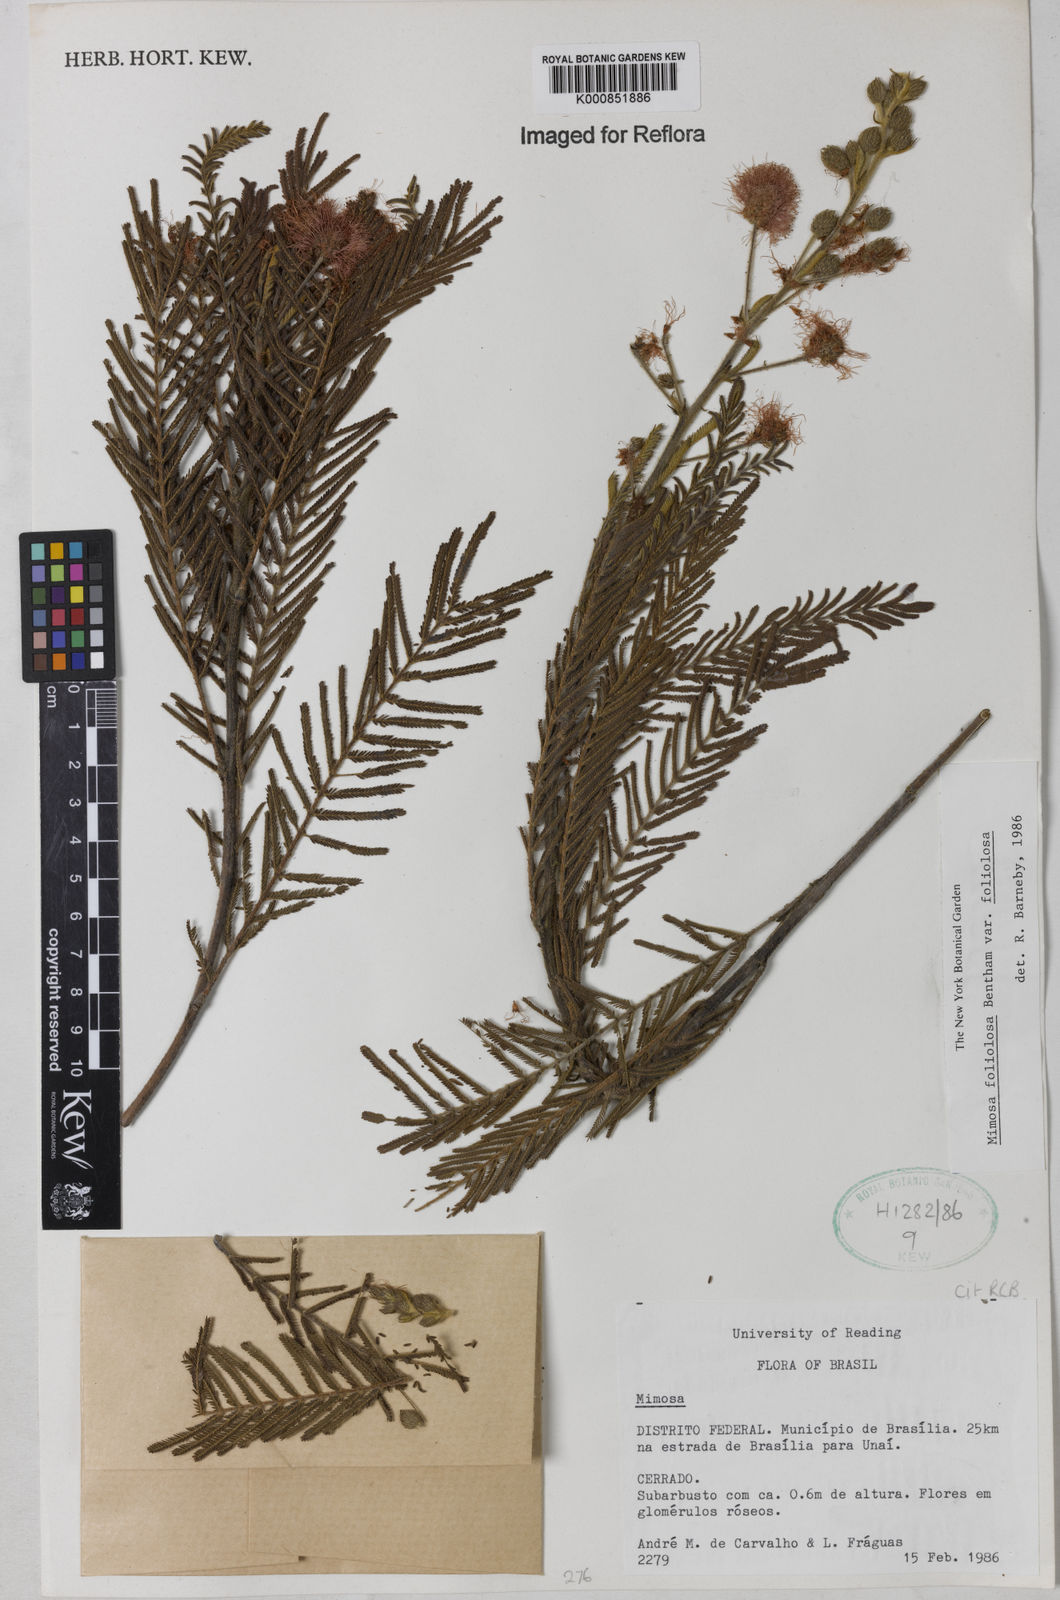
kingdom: Plantae
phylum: Tracheophyta
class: Magnoliopsida
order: Fabales
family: Fabaceae
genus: Mimosa
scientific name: Mimosa foliolosa
